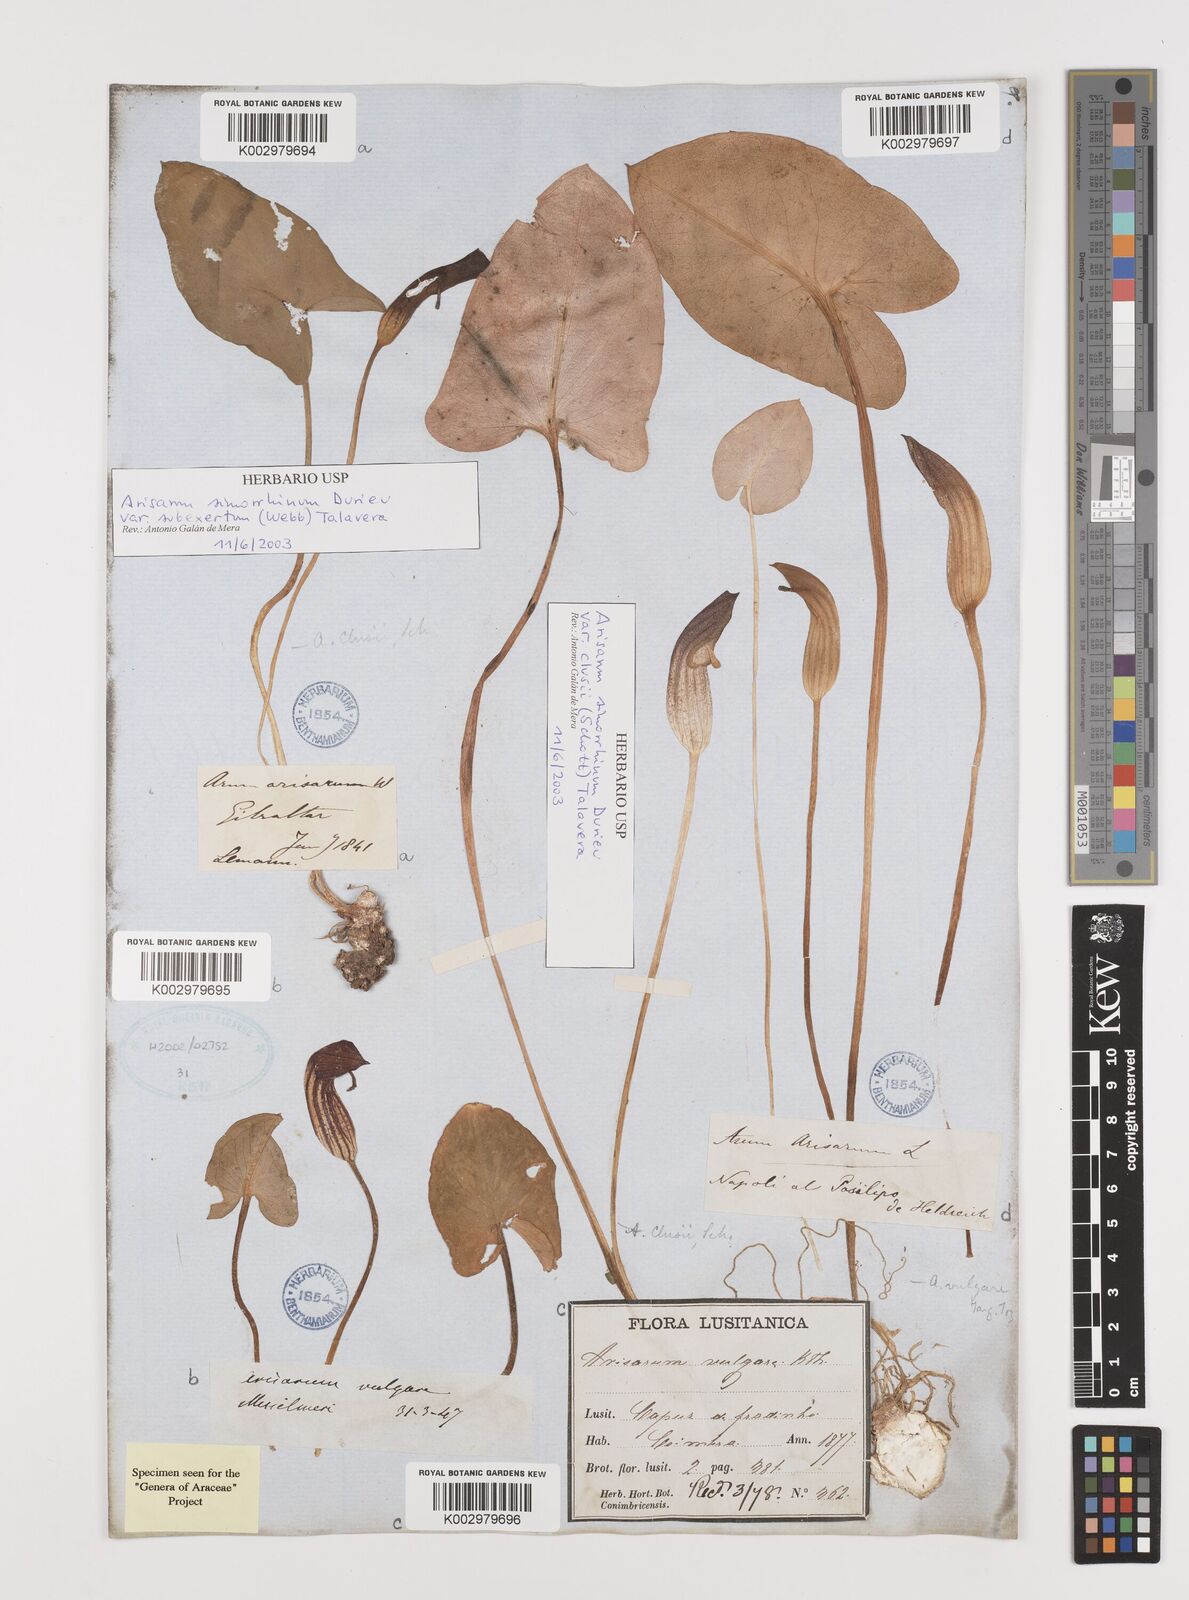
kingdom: Plantae
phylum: Tracheophyta
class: Liliopsida
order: Alismatales
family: Araceae
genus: Arisarum
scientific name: Arisarum simorrhinum
